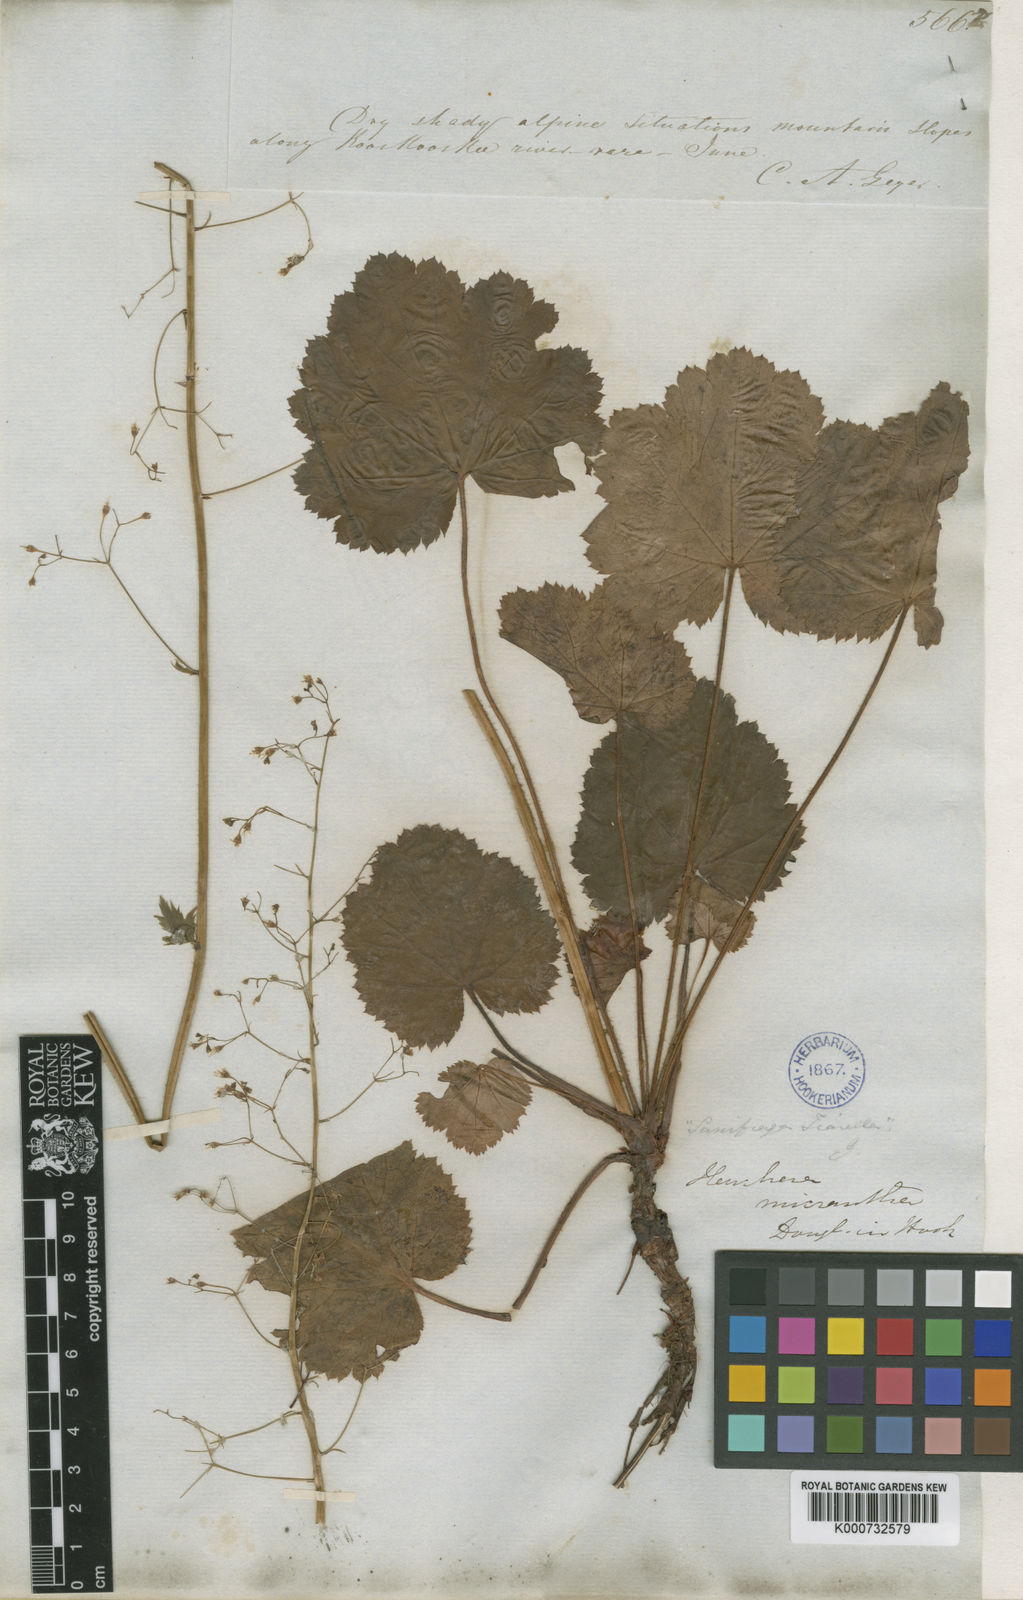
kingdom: Plantae
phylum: Tracheophyta
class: Magnoliopsida
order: Saxifragales
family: Saxifragaceae
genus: Heuchera
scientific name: Heuchera micrantha
